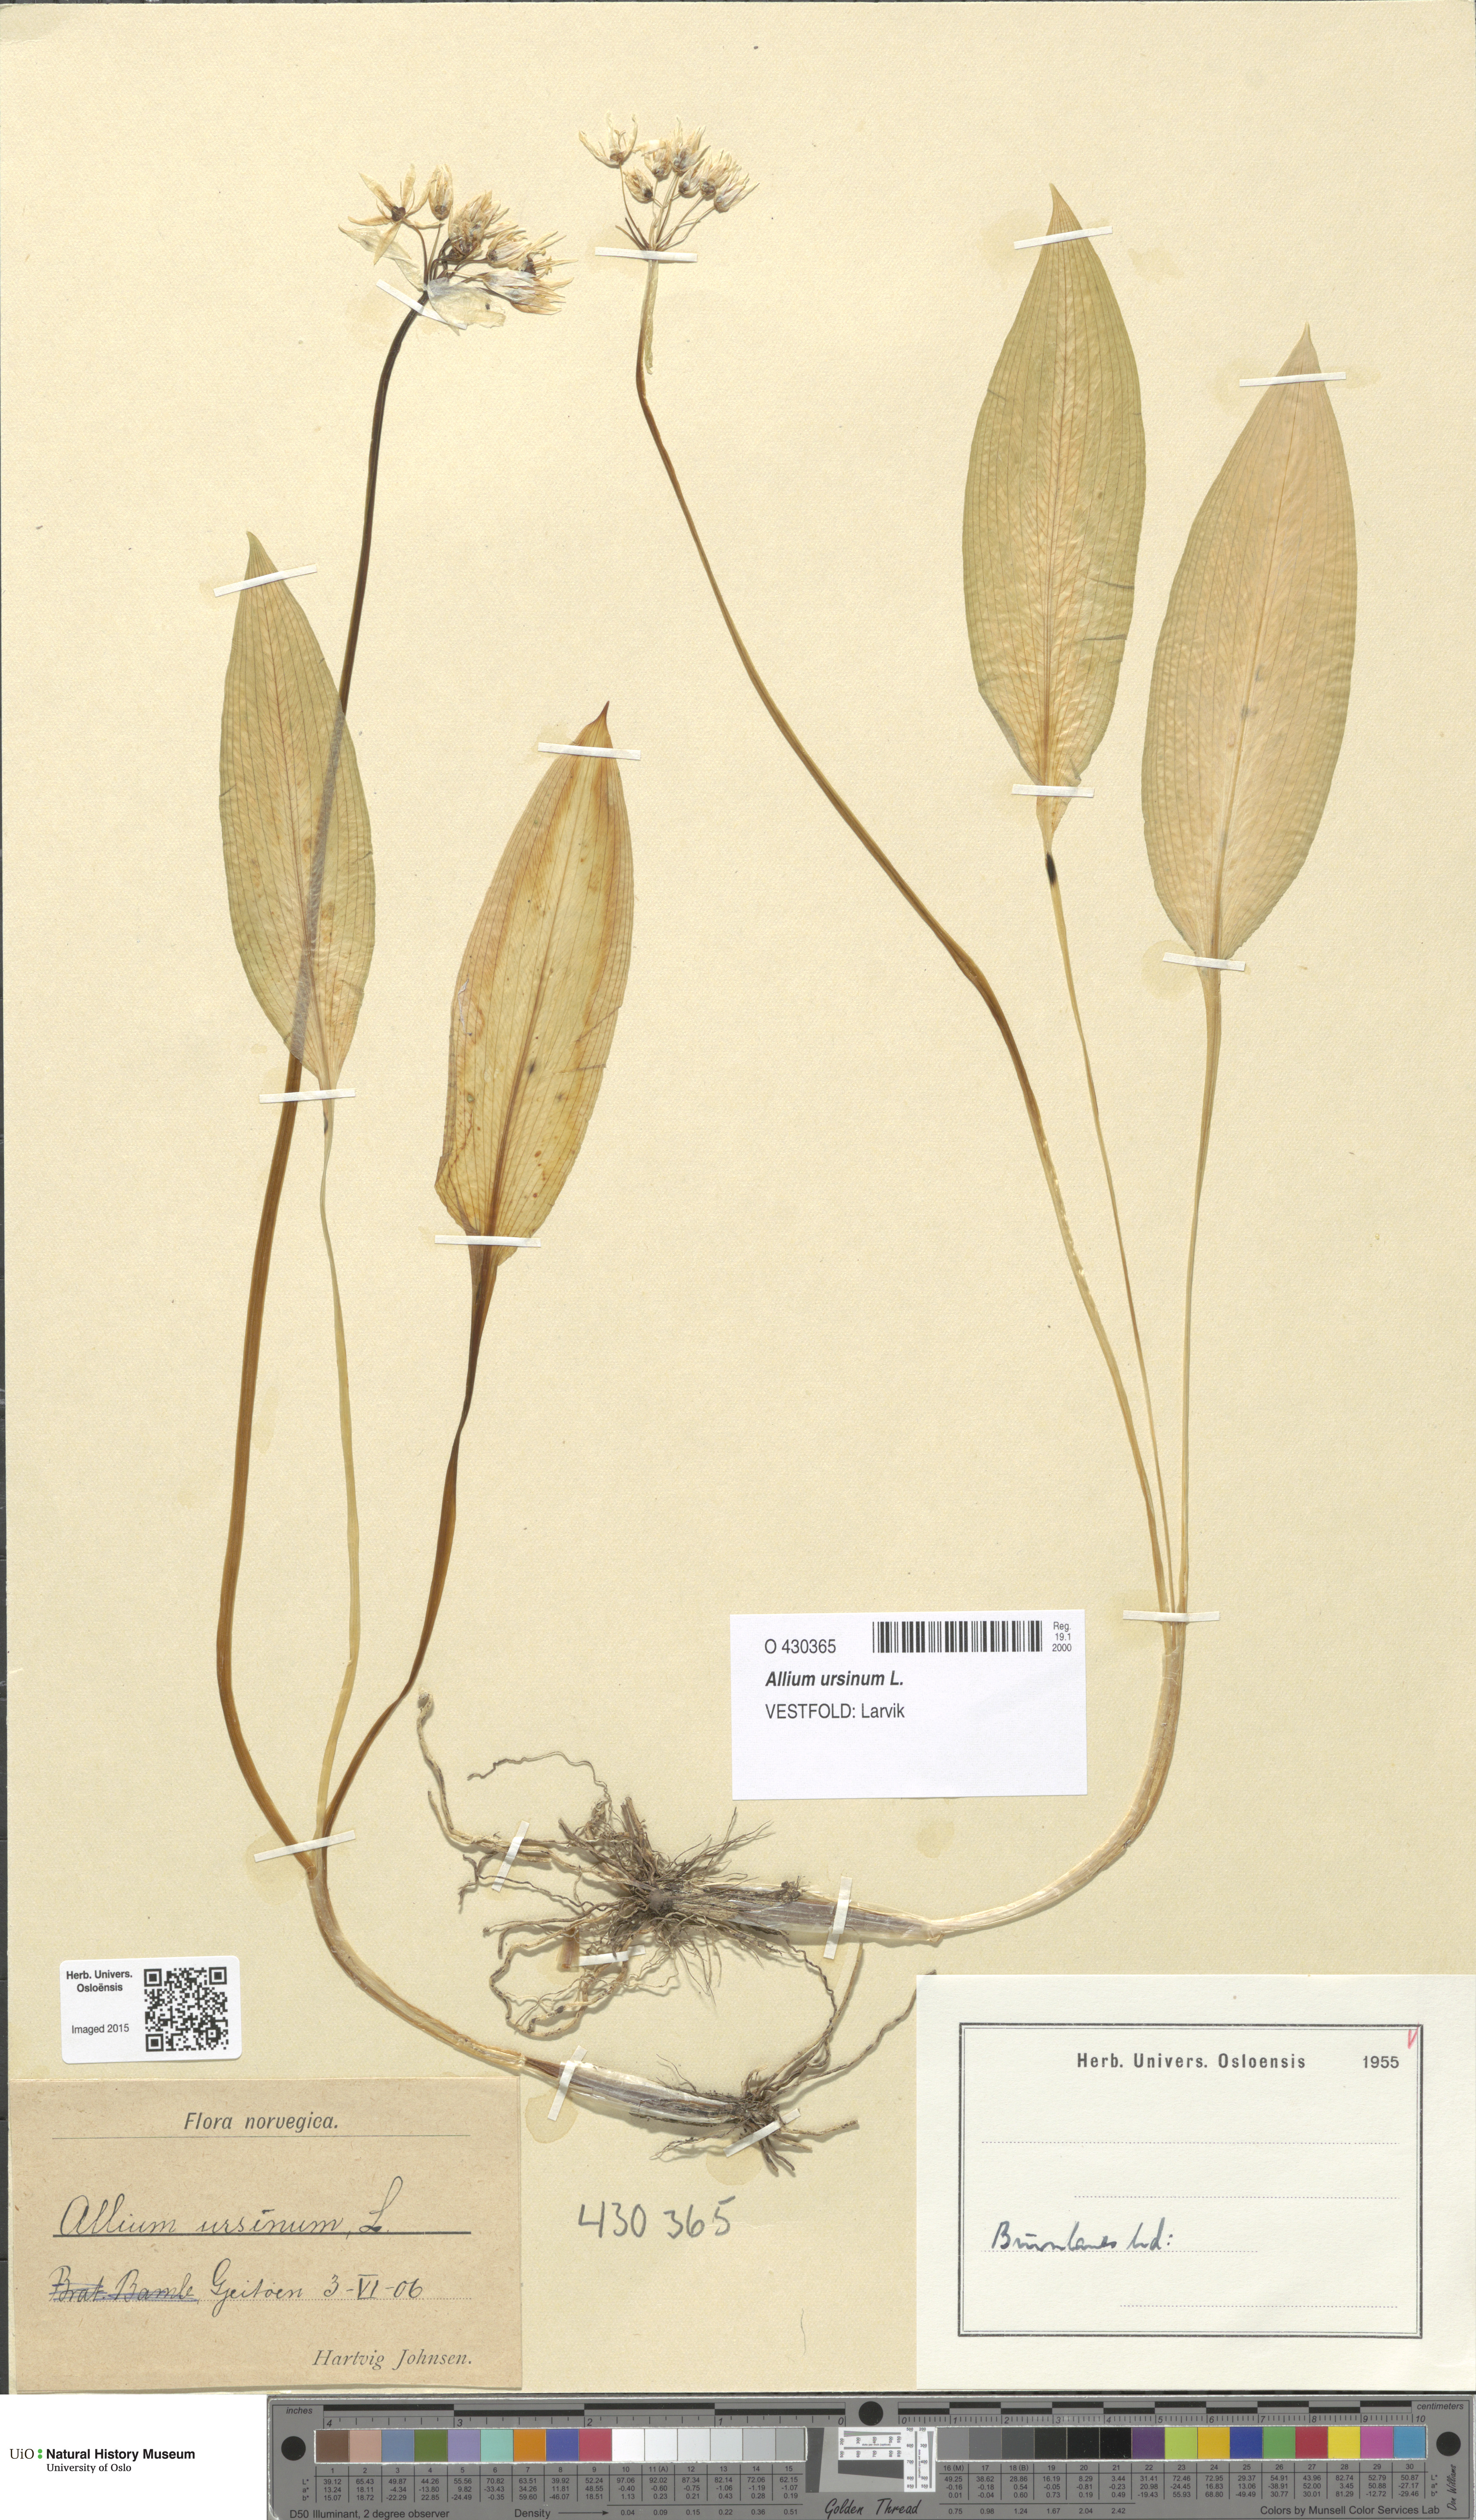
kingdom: Plantae
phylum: Tracheophyta
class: Liliopsida
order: Asparagales
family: Amaryllidaceae
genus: Allium
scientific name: Allium ursinum
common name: Ramsons
